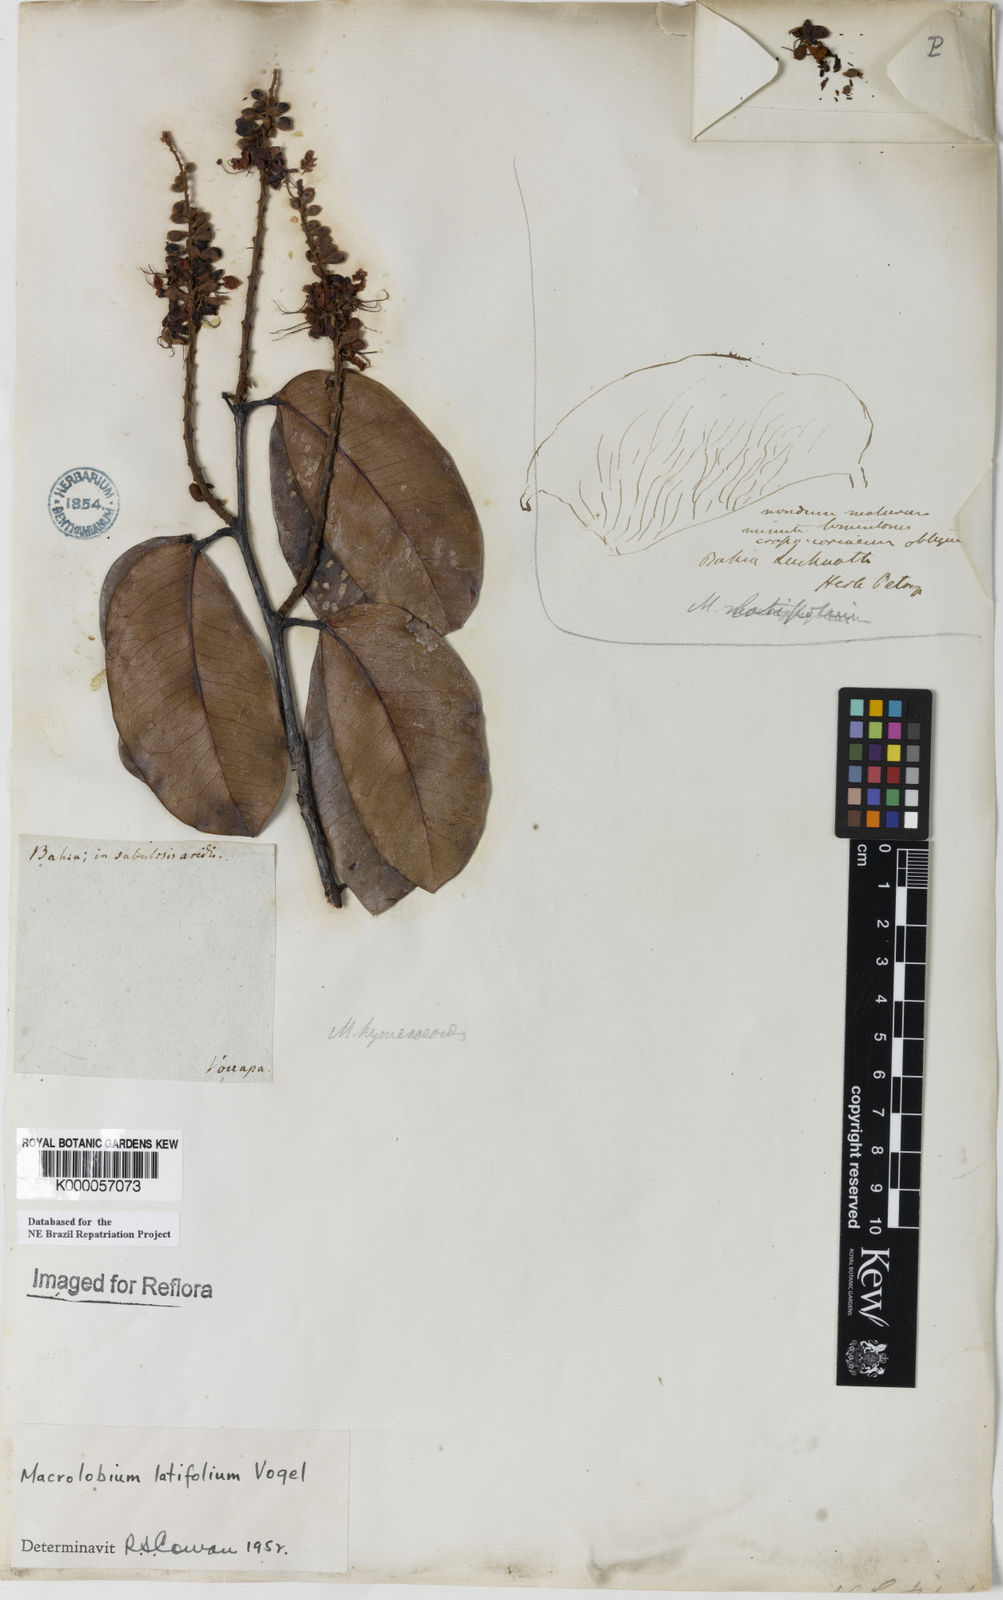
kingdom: Plantae
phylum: Tracheophyta
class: Magnoliopsida
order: Fabales
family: Fabaceae
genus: Macrolobium
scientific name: Macrolobium latifolium
